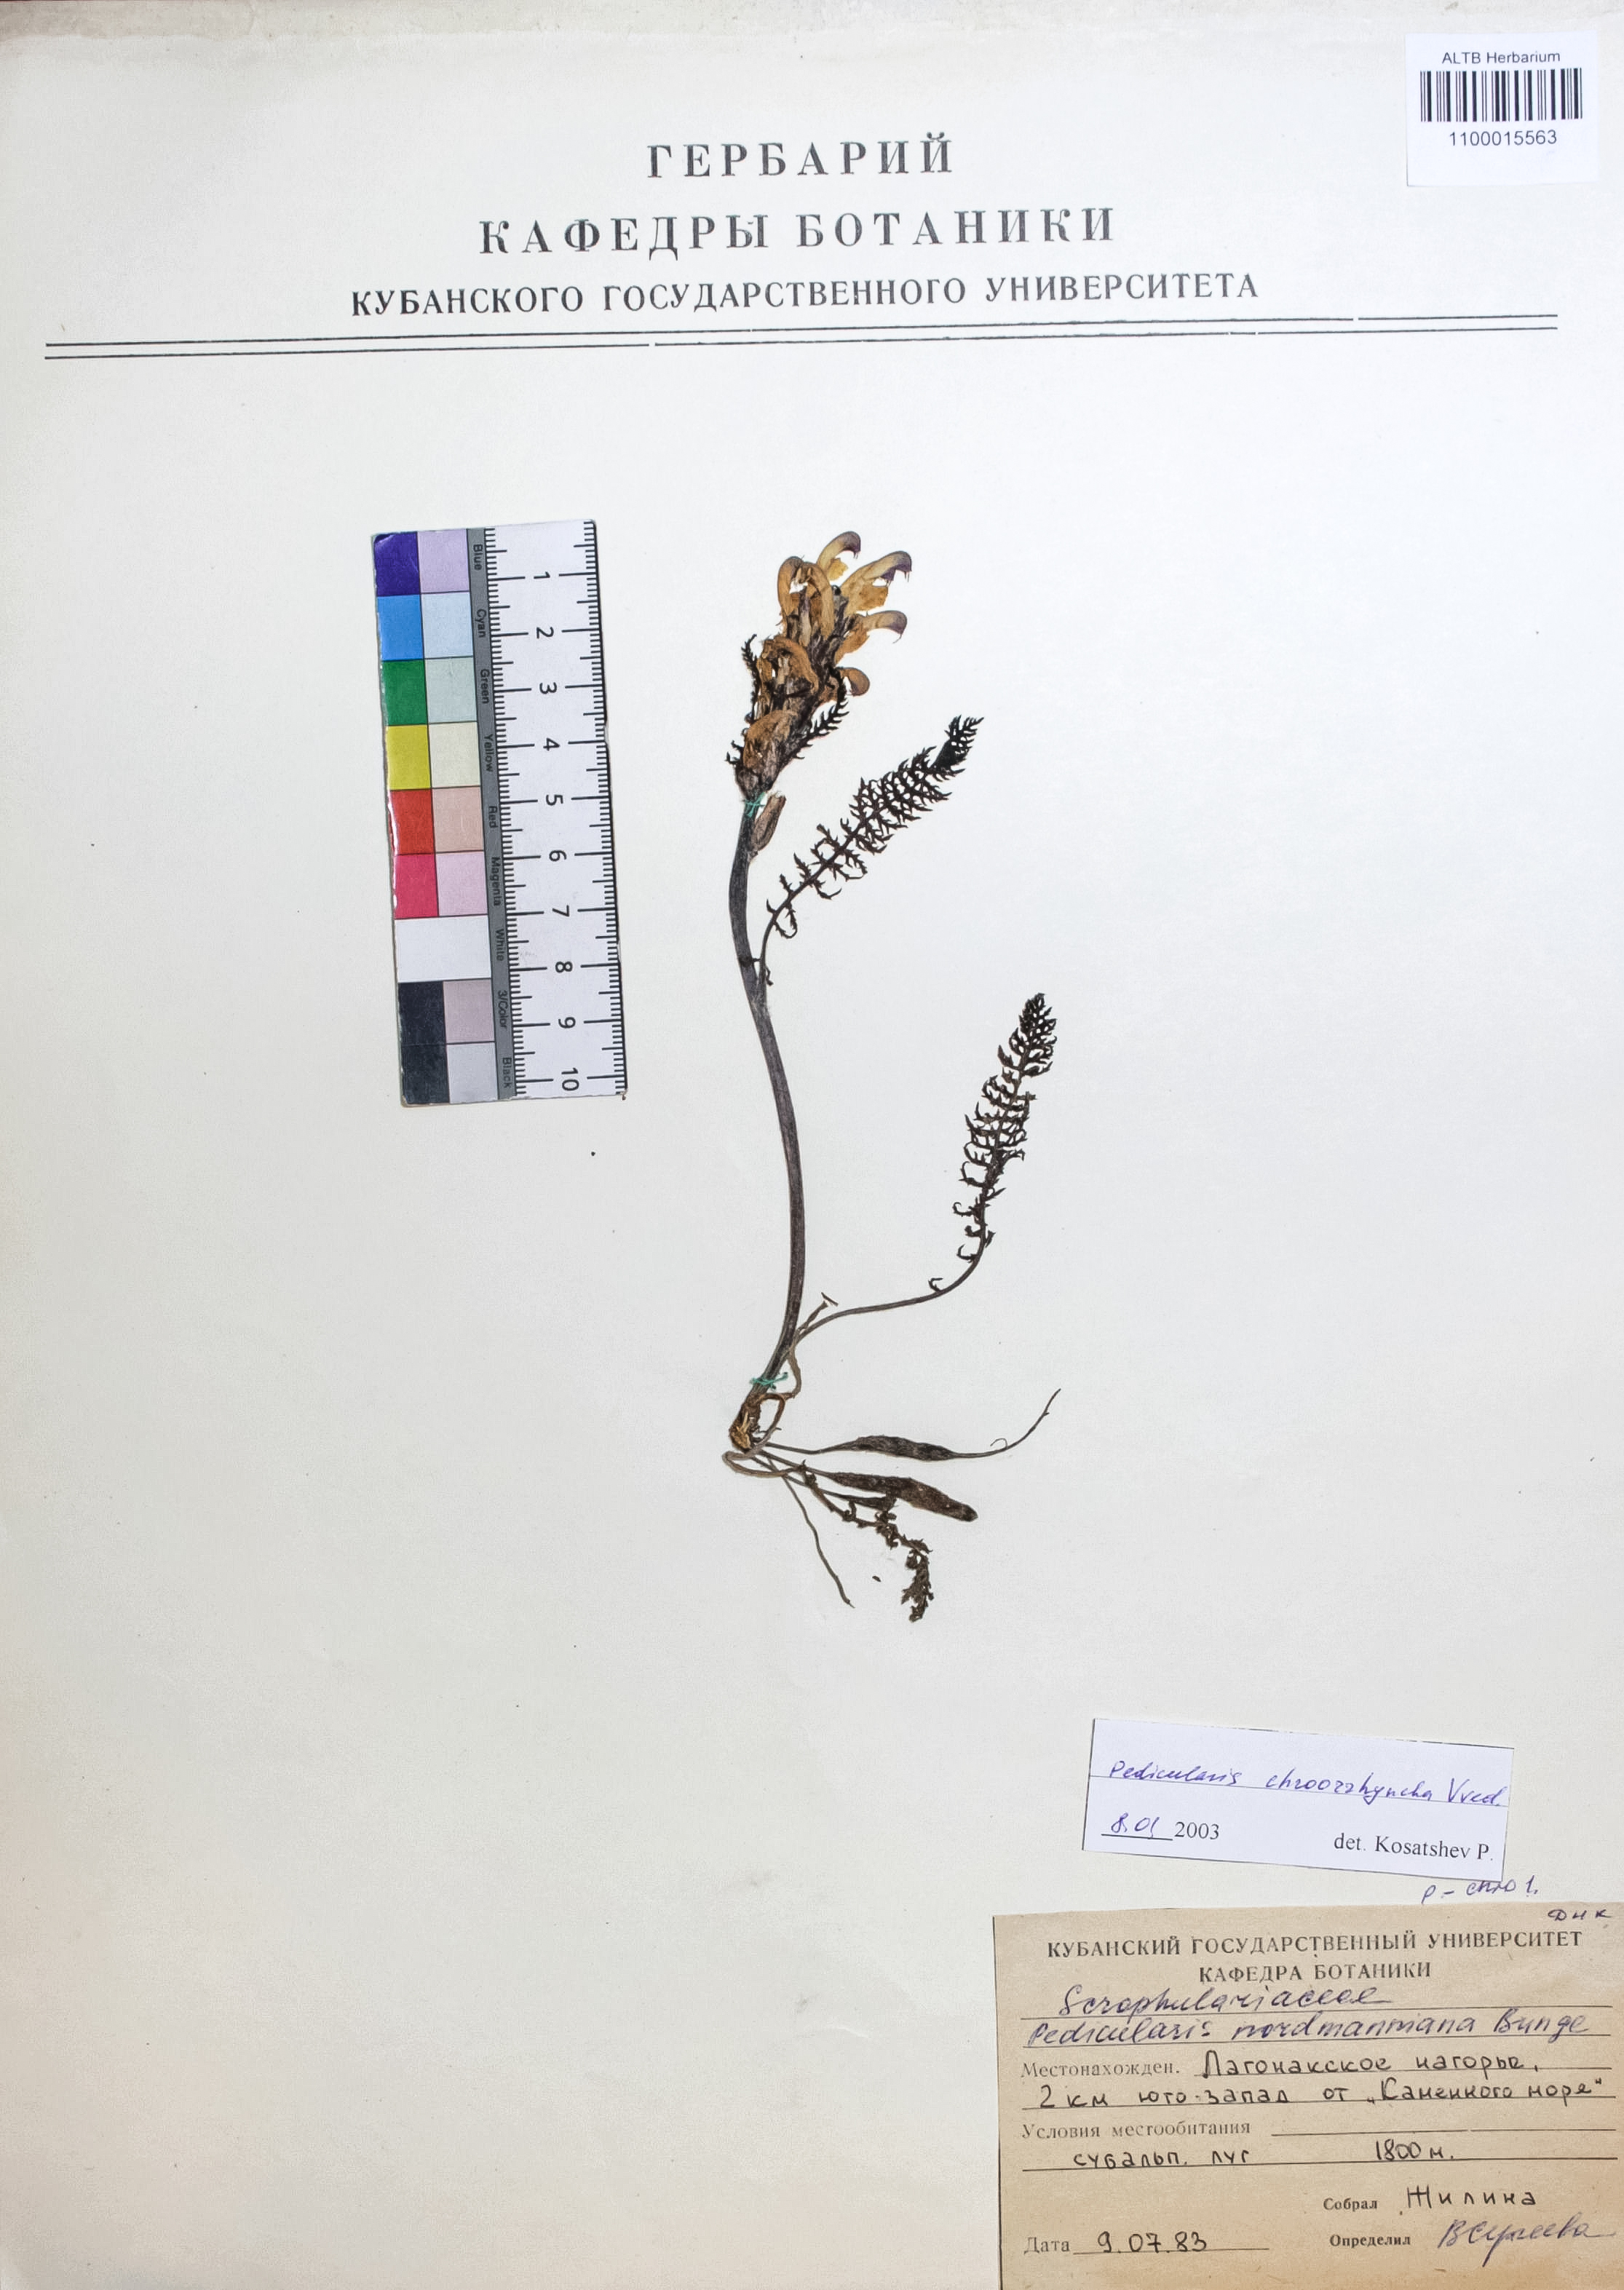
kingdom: Plantae
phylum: Tracheophyta
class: Magnoliopsida
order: Lamiales
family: Orobanchaceae
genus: Pedicularis
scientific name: Pedicularis chroorrhyncha
